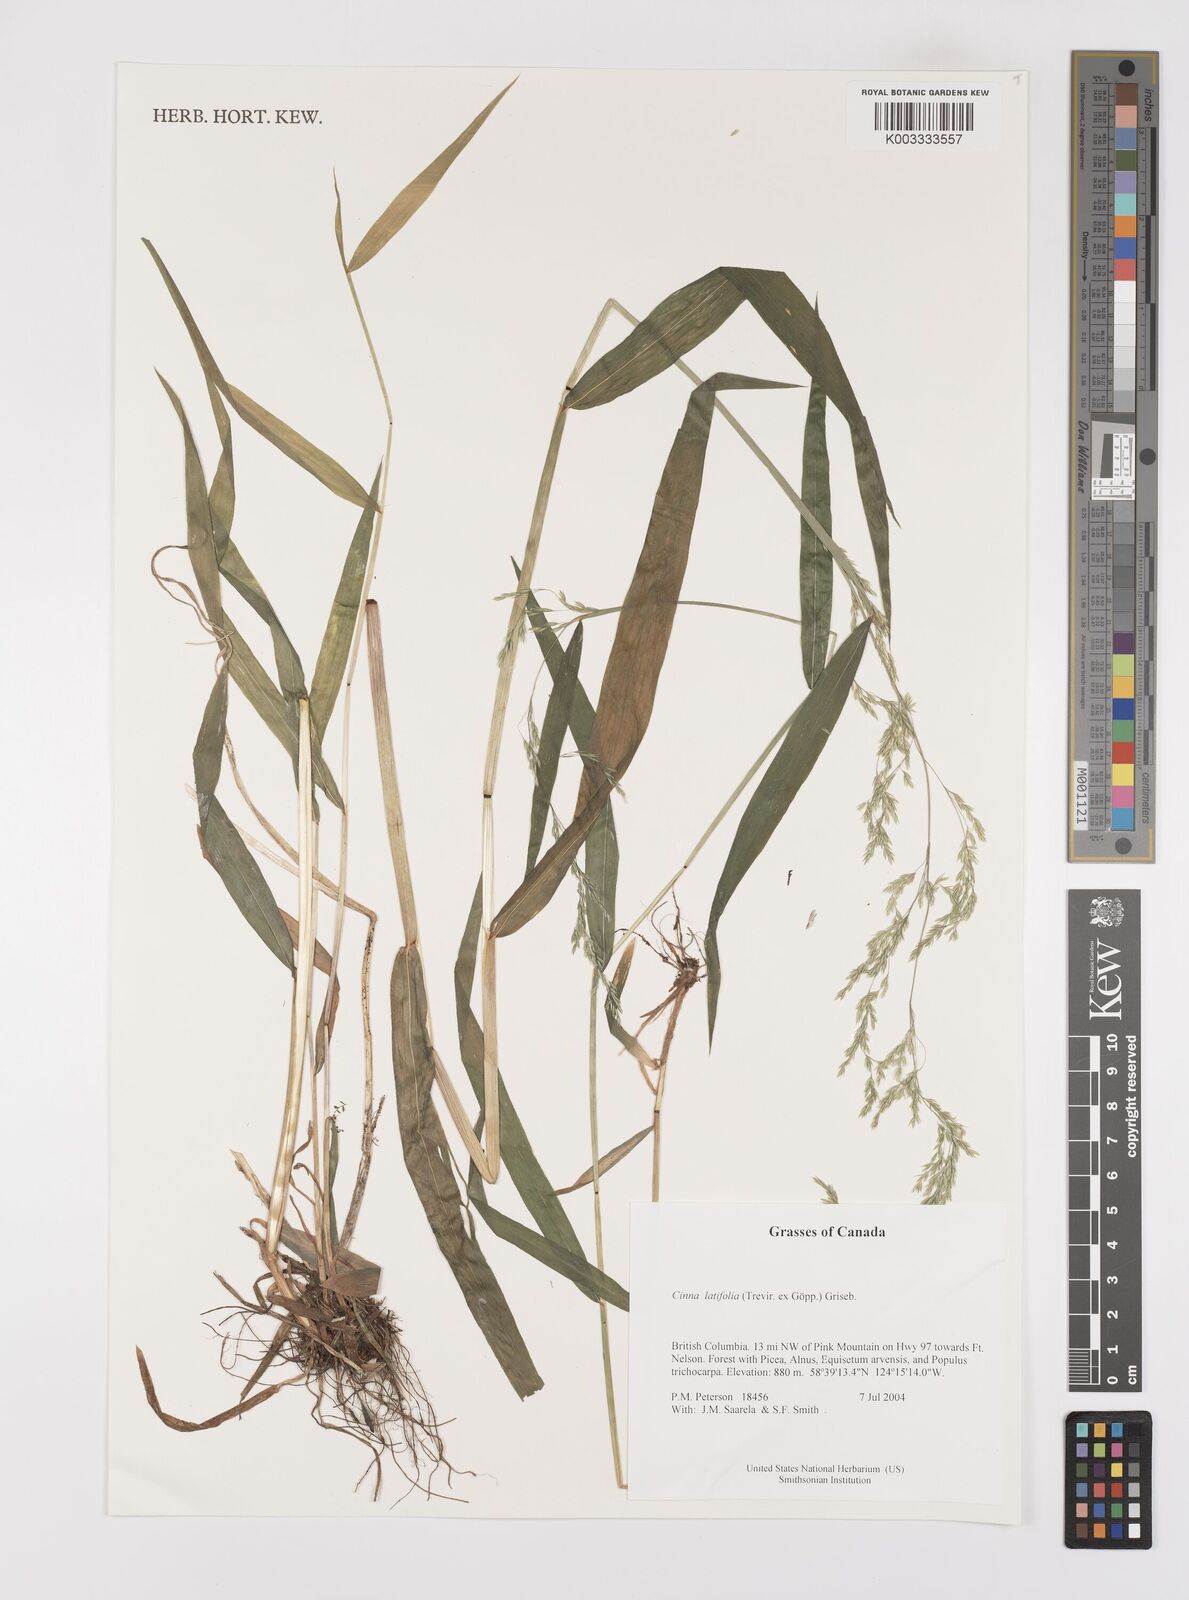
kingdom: Plantae
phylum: Tracheophyta
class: Liliopsida
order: Poales
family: Poaceae
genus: Cinna
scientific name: Cinna latifolia
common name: Drooping woodreed
